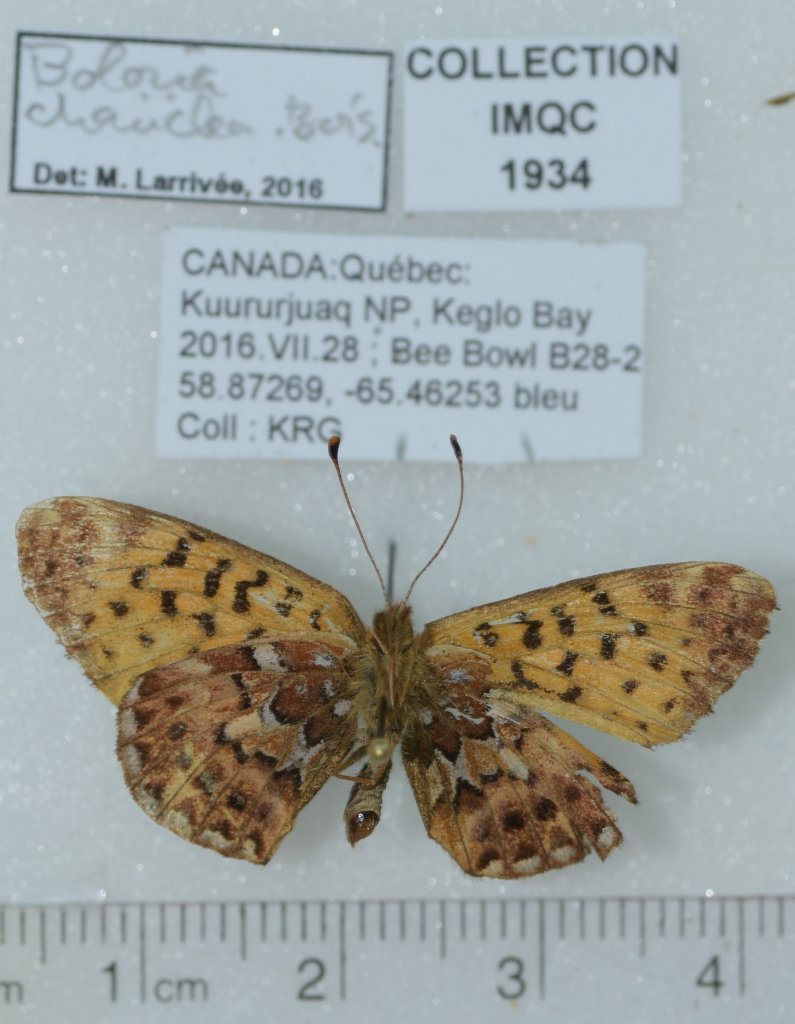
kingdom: Animalia
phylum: Arthropoda
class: Insecta
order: Lepidoptera
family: Nymphalidae
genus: Boloria
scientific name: Boloria chariclea
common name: Arctic Fritillary
